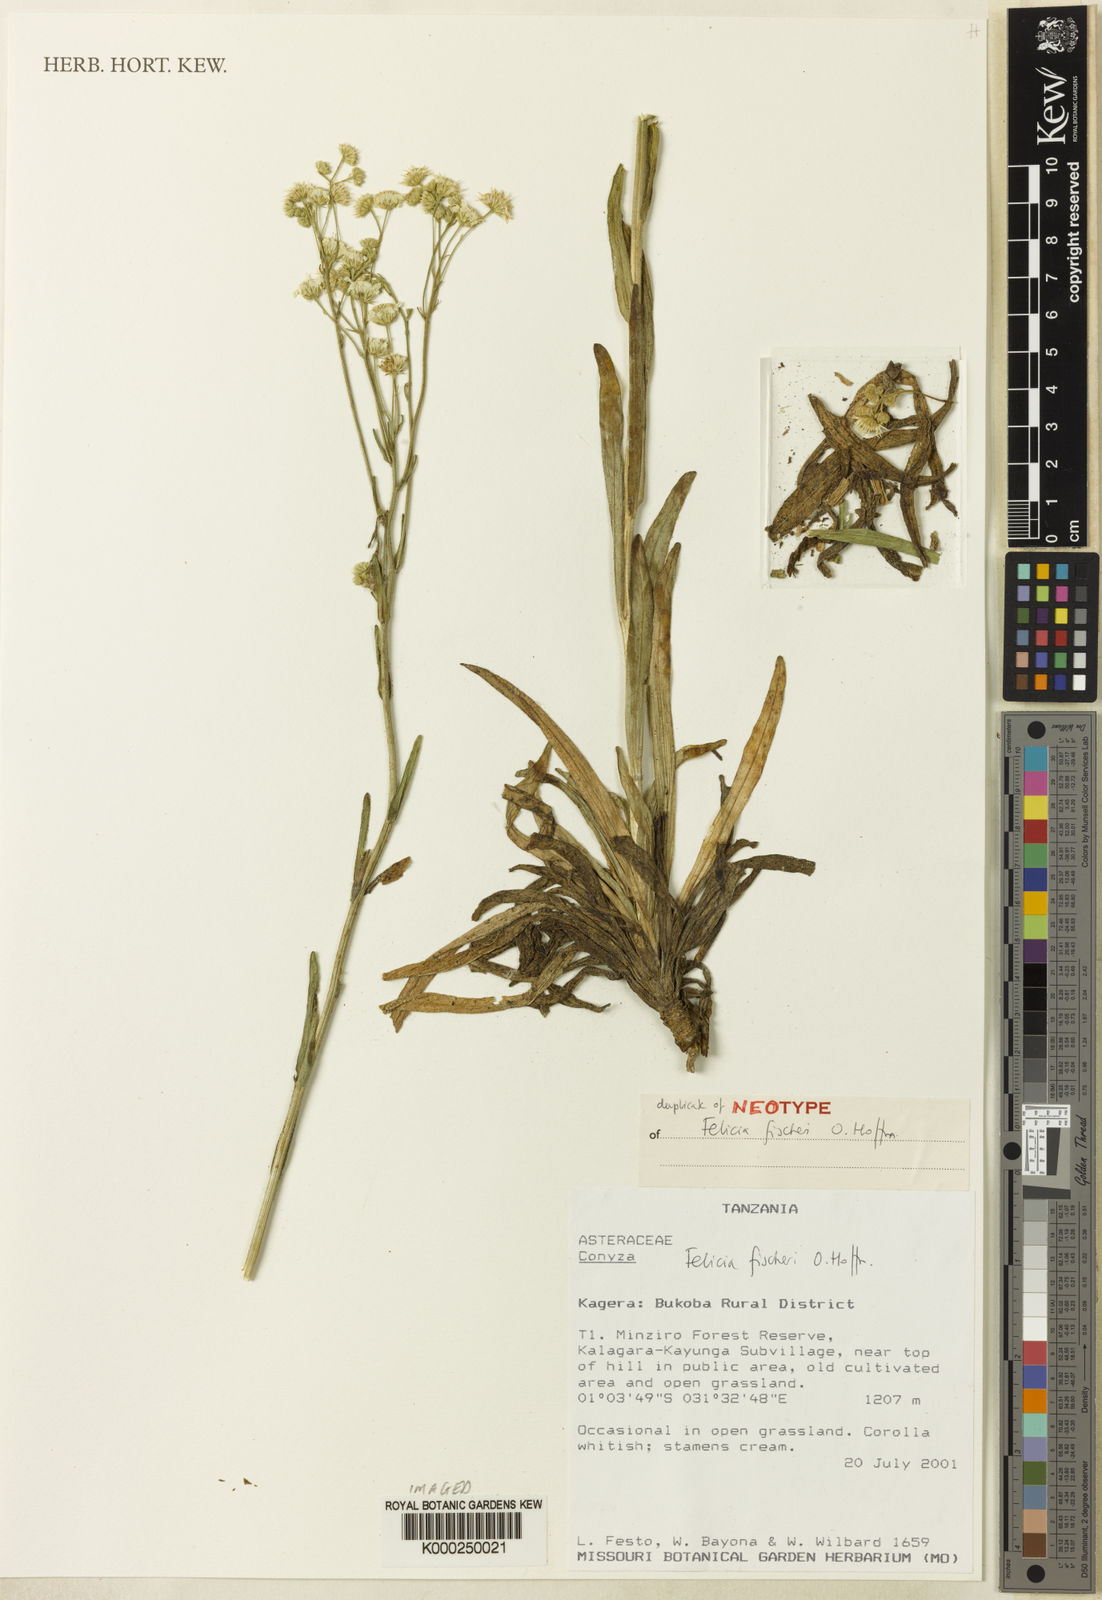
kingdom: Plantae
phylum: Tracheophyta
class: Magnoliopsida
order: Asterales
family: Asteraceae
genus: Felicia
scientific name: Felicia welwitschii
